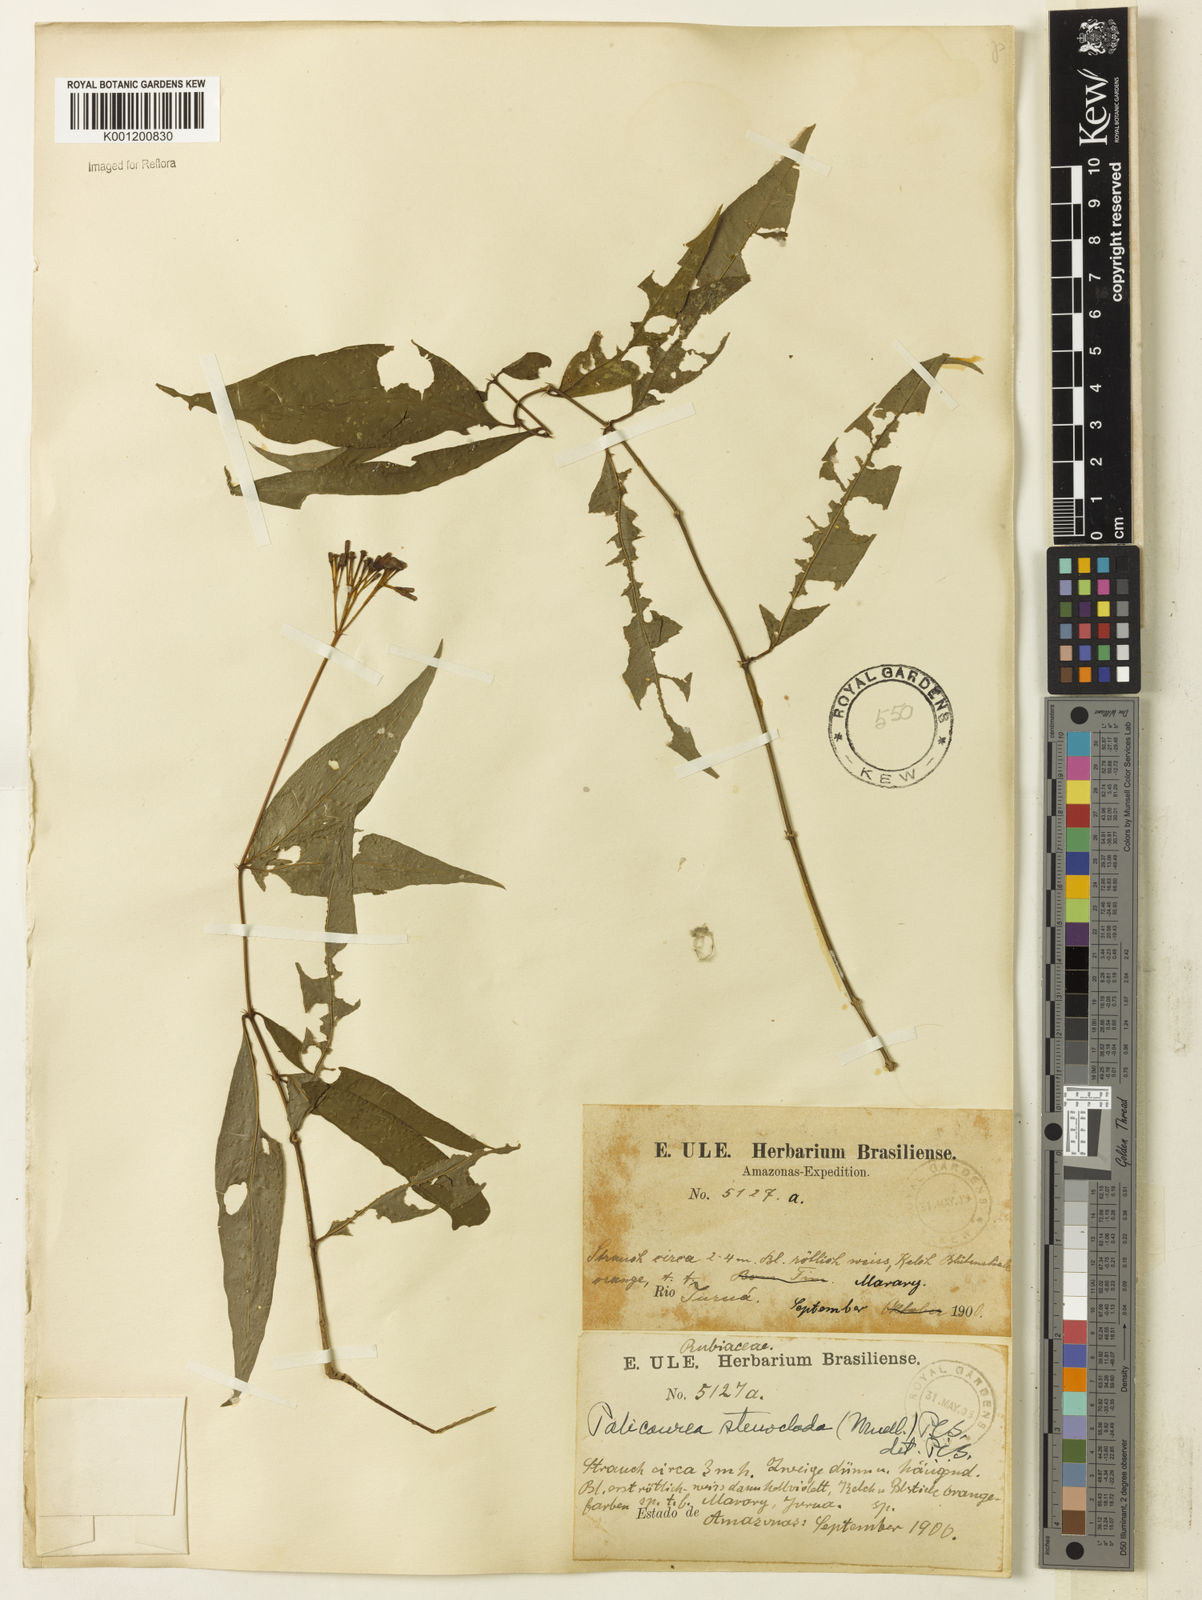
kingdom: Plantae
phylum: Tracheophyta
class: Magnoliopsida
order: Gentianales
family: Rubiaceae
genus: Palicourea
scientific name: Palicourea croceoides
